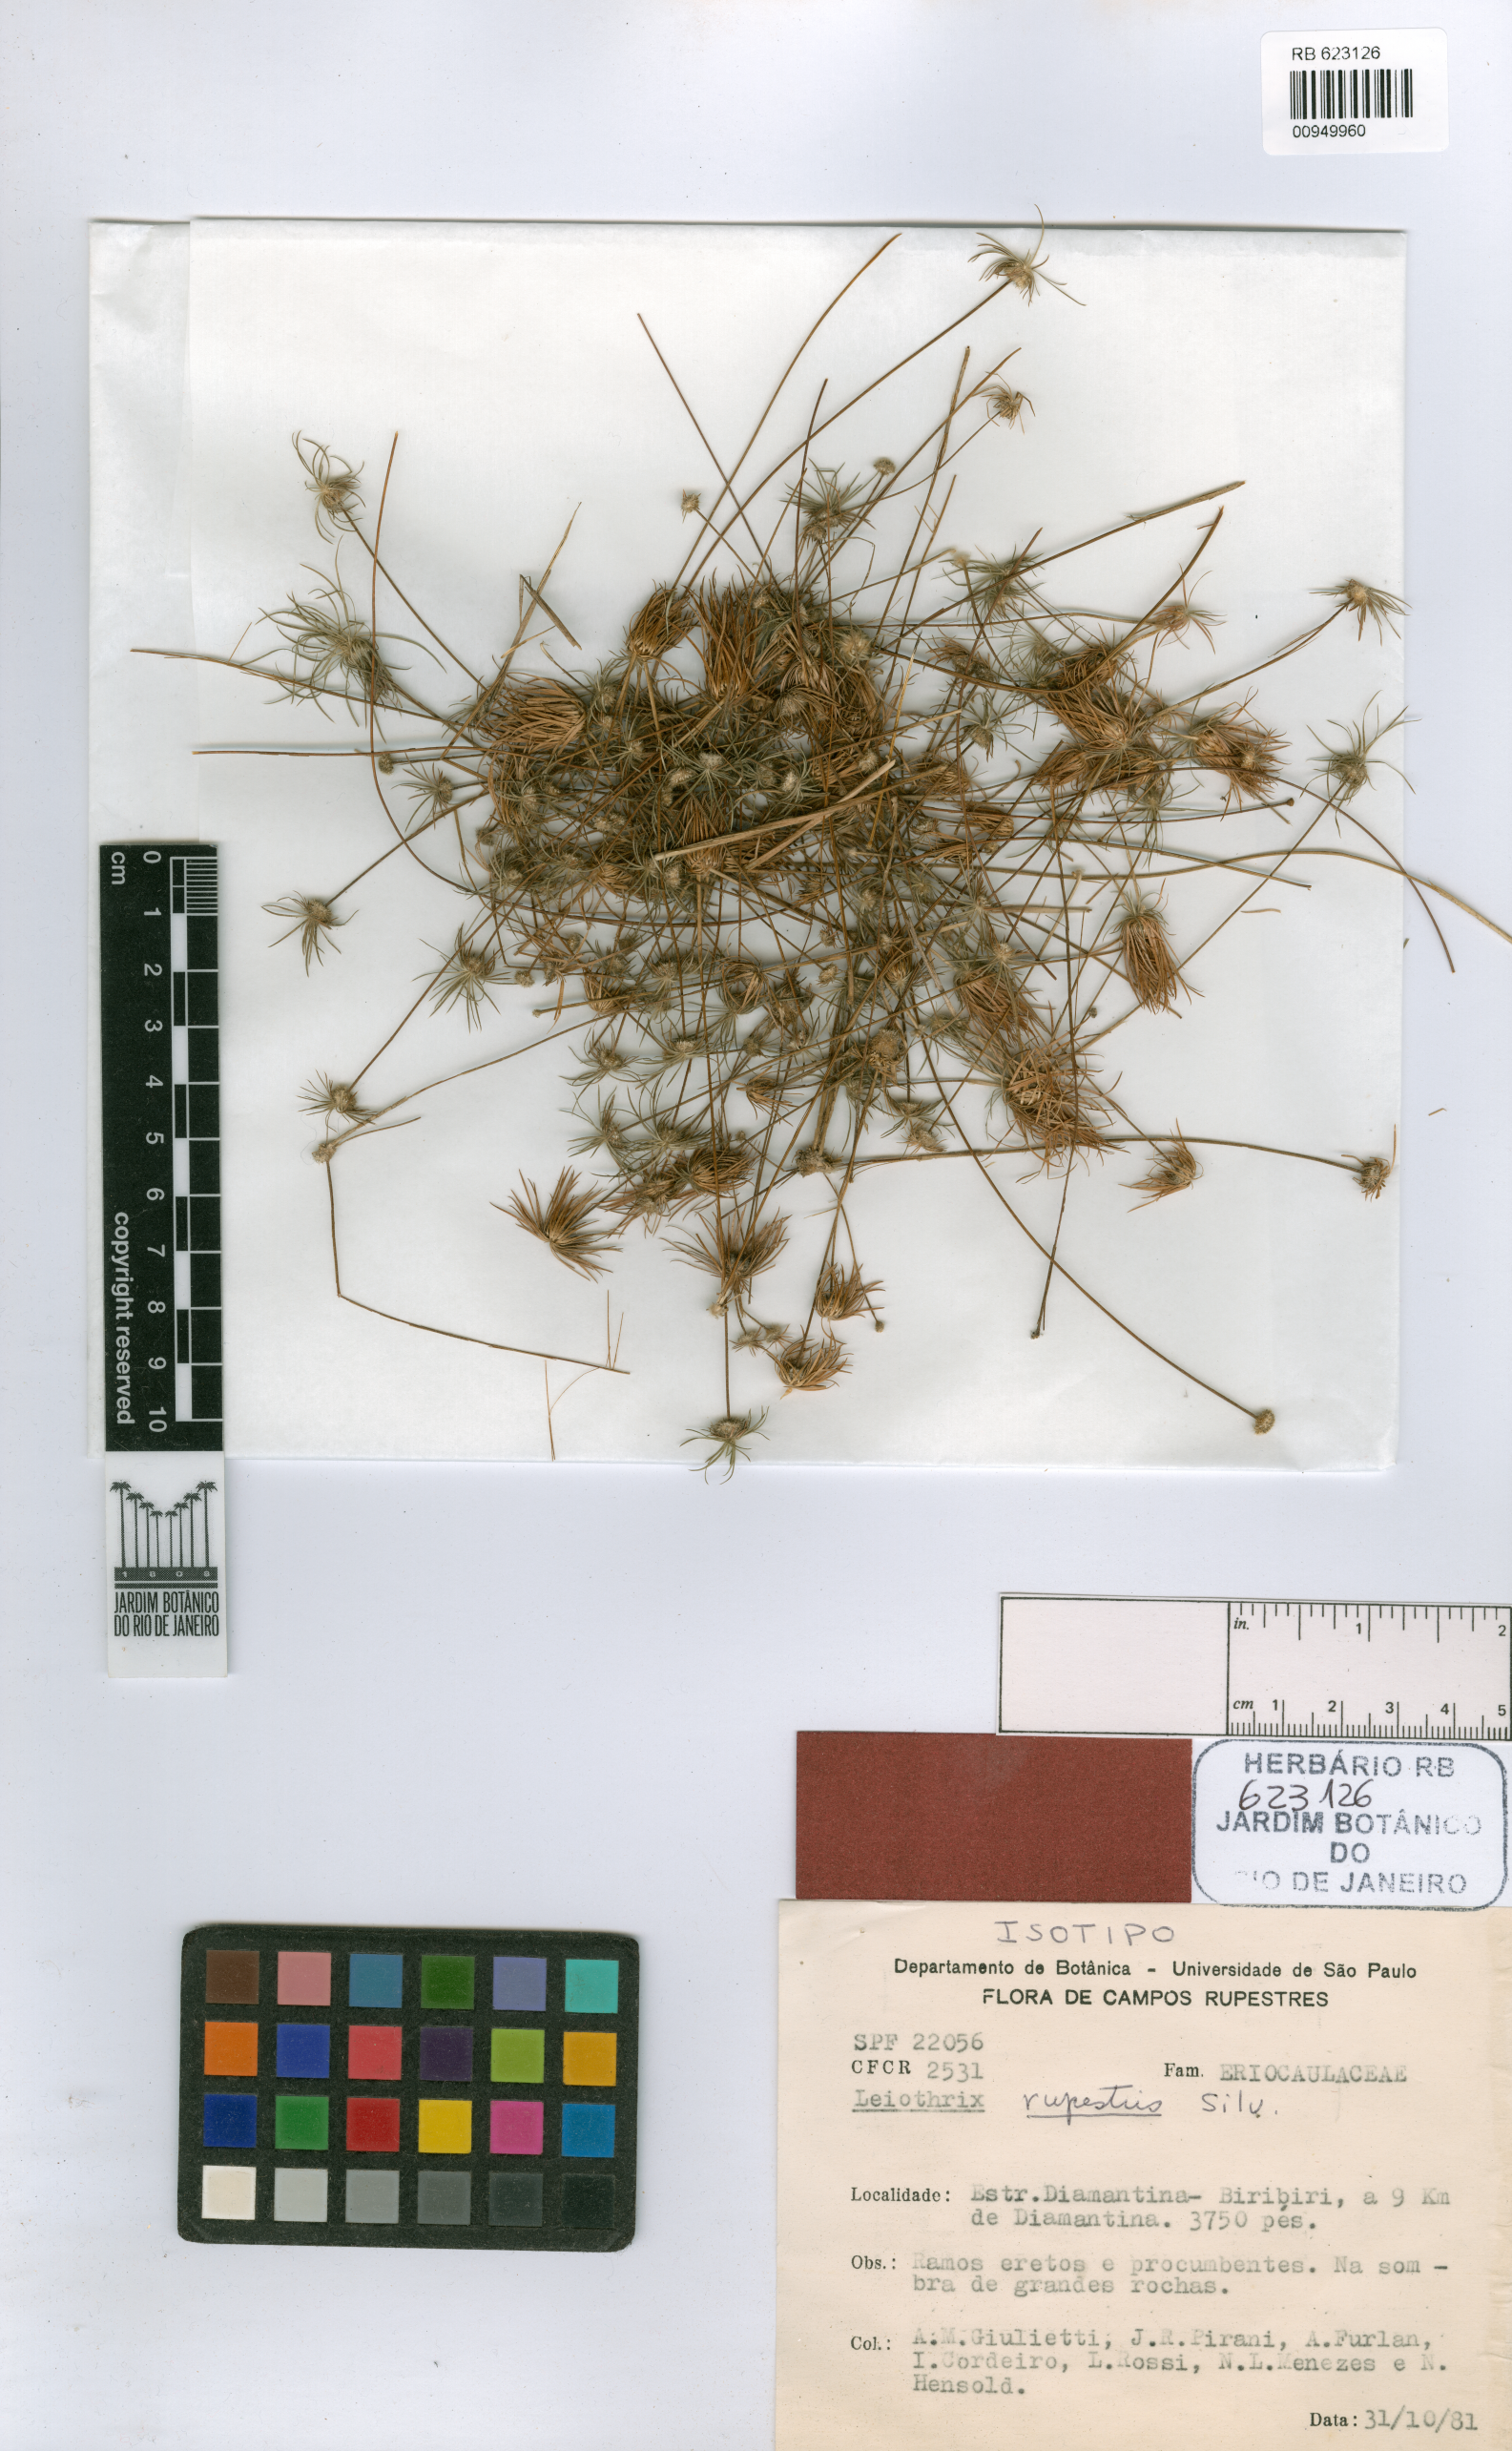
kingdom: Plantae
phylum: Tracheophyta
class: Liliopsida
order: Poales
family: Eriocaulaceae
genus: Leiothrix
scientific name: Leiothrix rupestris
